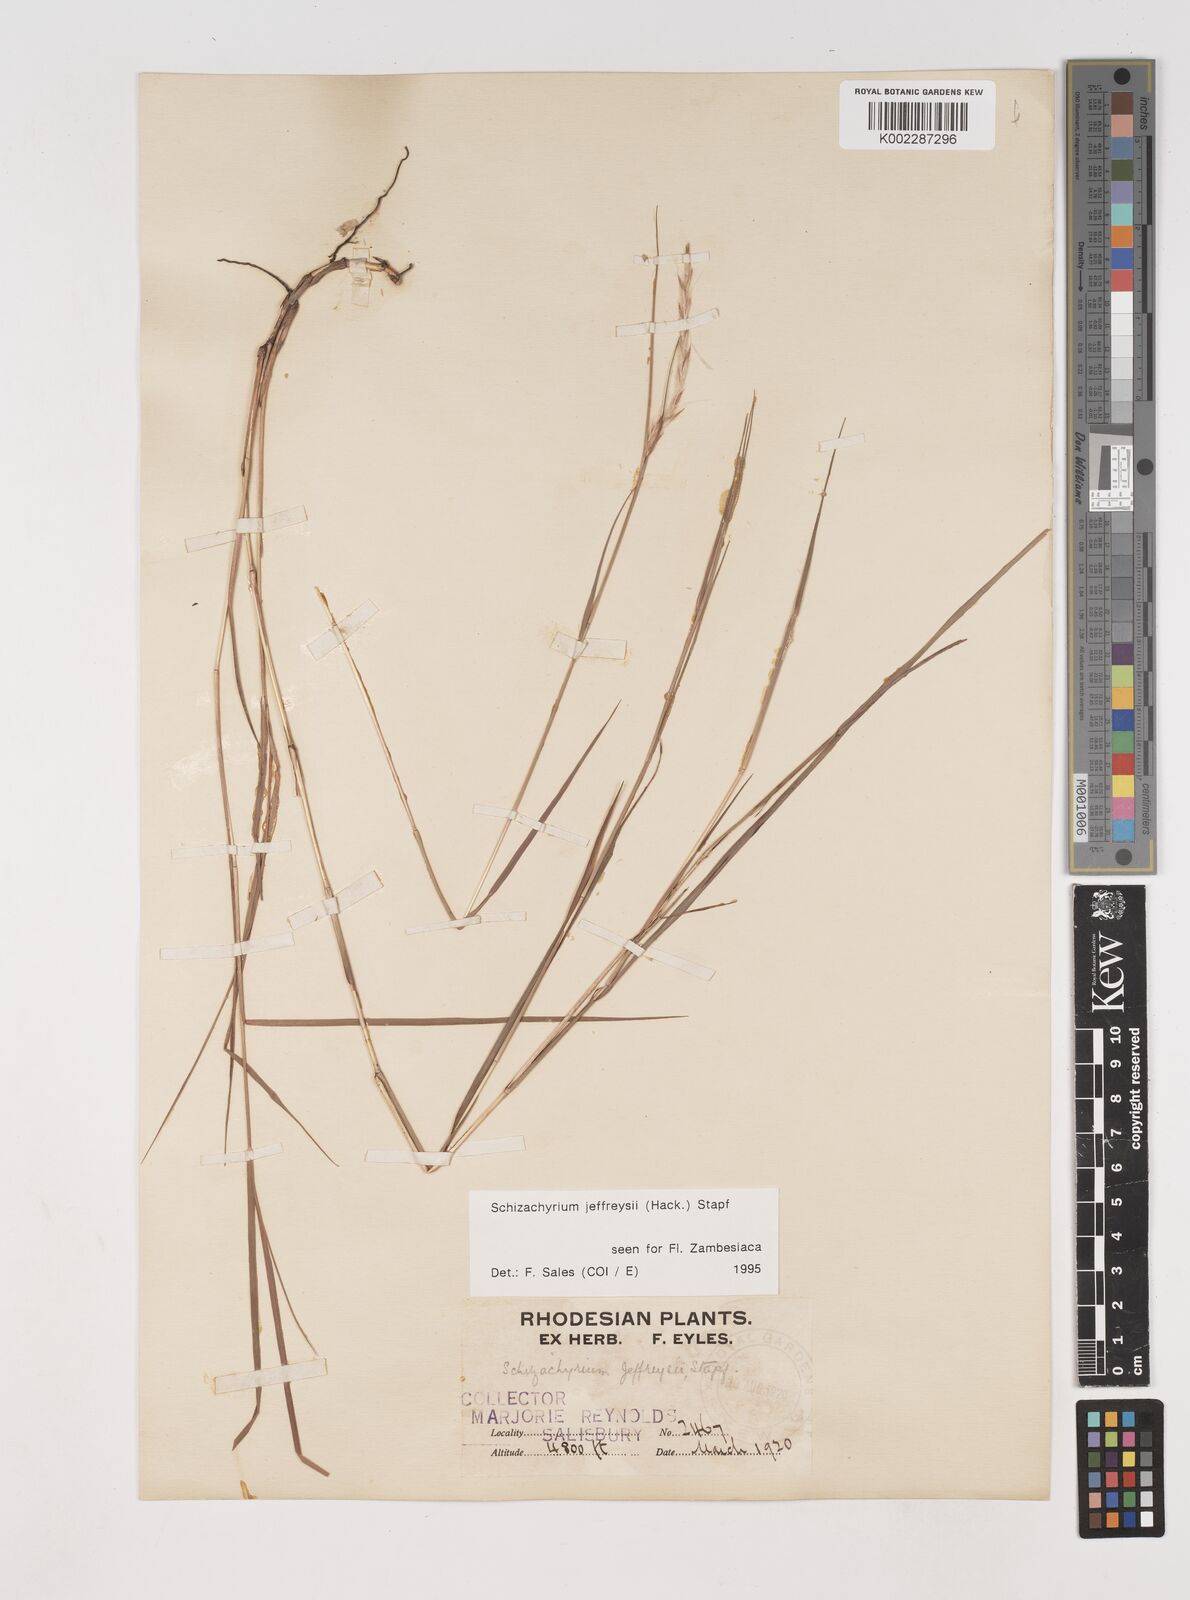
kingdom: Plantae
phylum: Tracheophyta
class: Liliopsida
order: Poales
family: Poaceae
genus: Schizachyrium
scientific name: Schizachyrium jeffreysii
